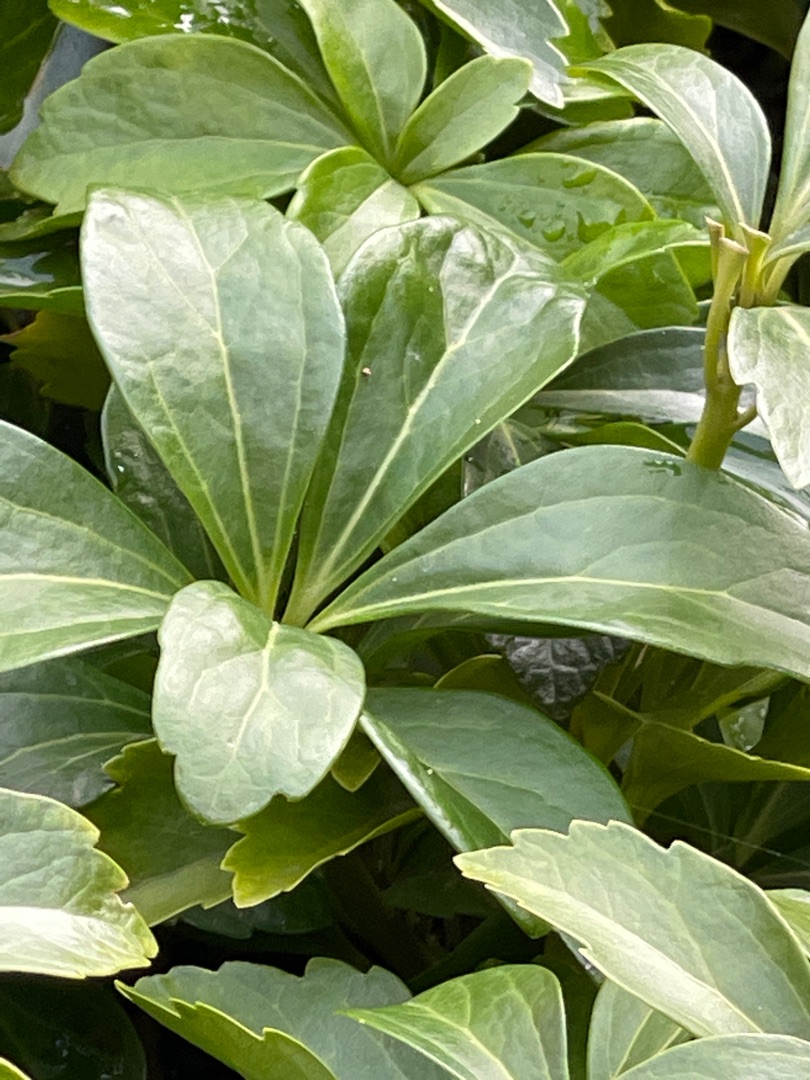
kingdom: Plantae
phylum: Tracheophyta
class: Magnoliopsida
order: Buxales
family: Buxaceae
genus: Pachysandra
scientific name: Pachysandra terminalis
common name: Vinterglans
